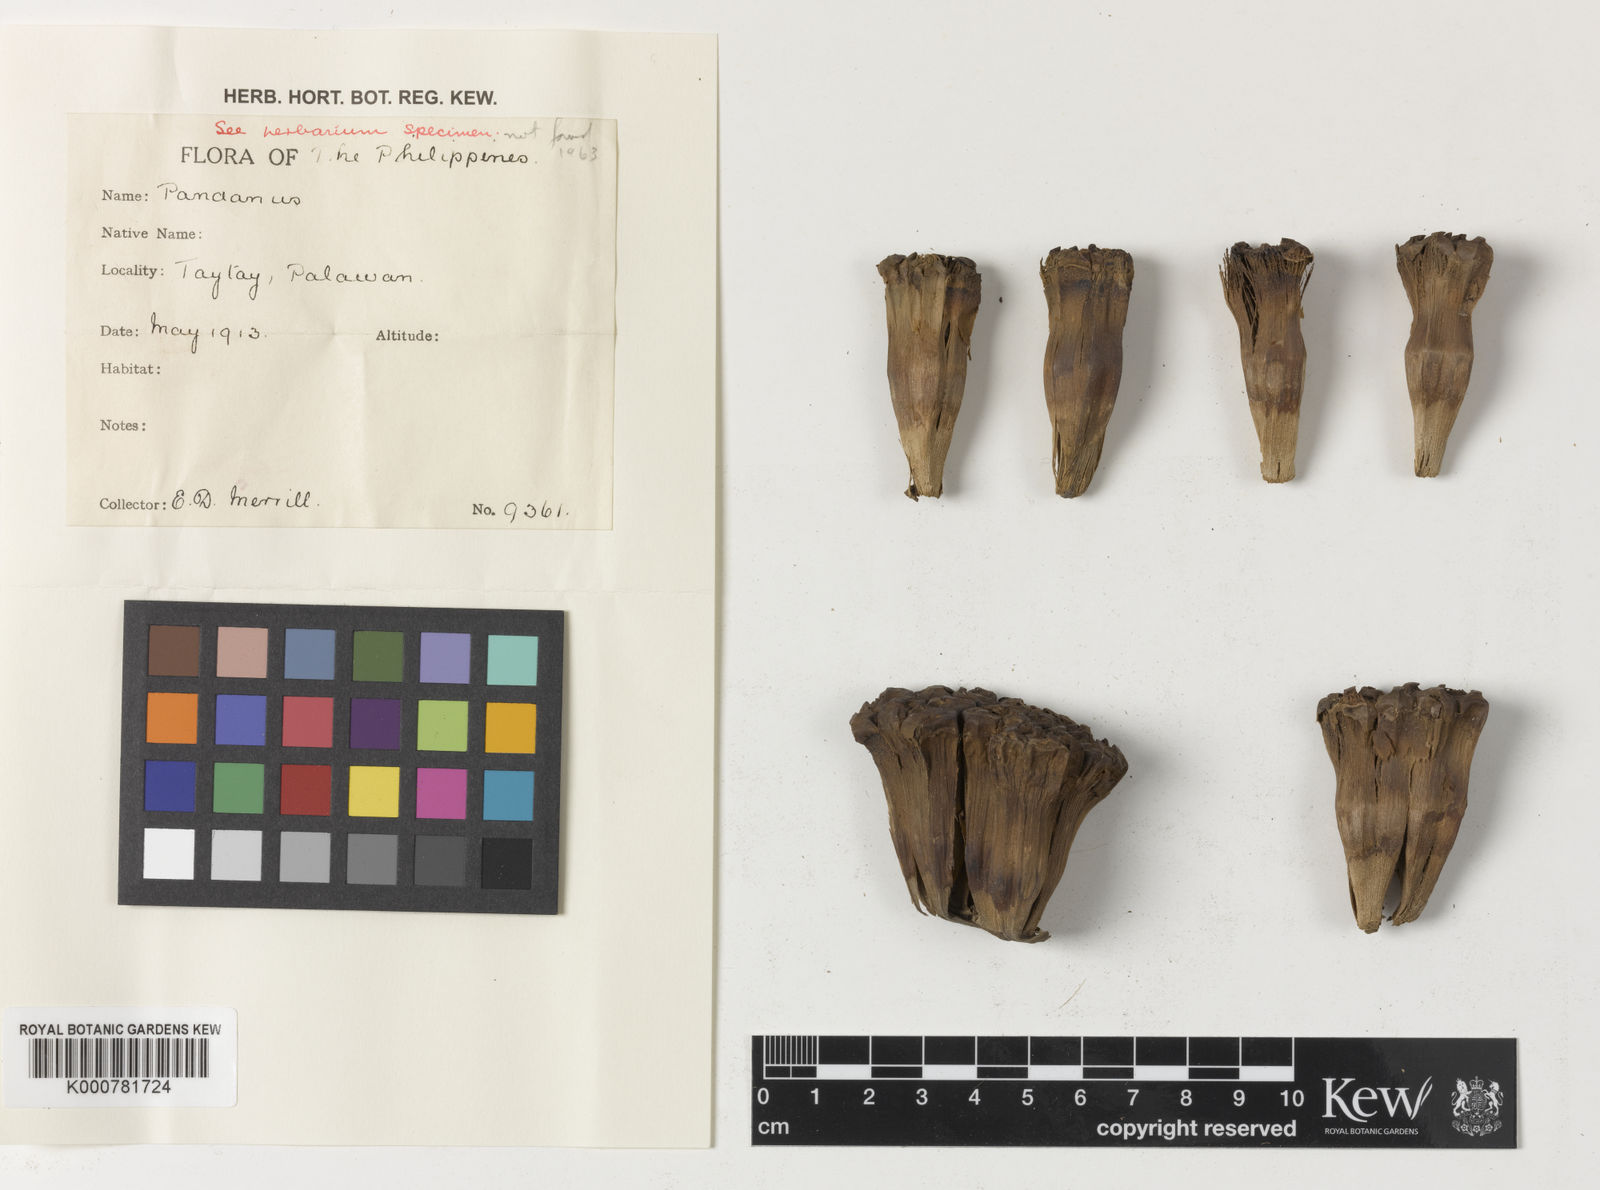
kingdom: Plantae
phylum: Tracheophyta
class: Liliopsida
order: Pandanales
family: Pandanaceae
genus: Pandanus
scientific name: Pandanus occultus
